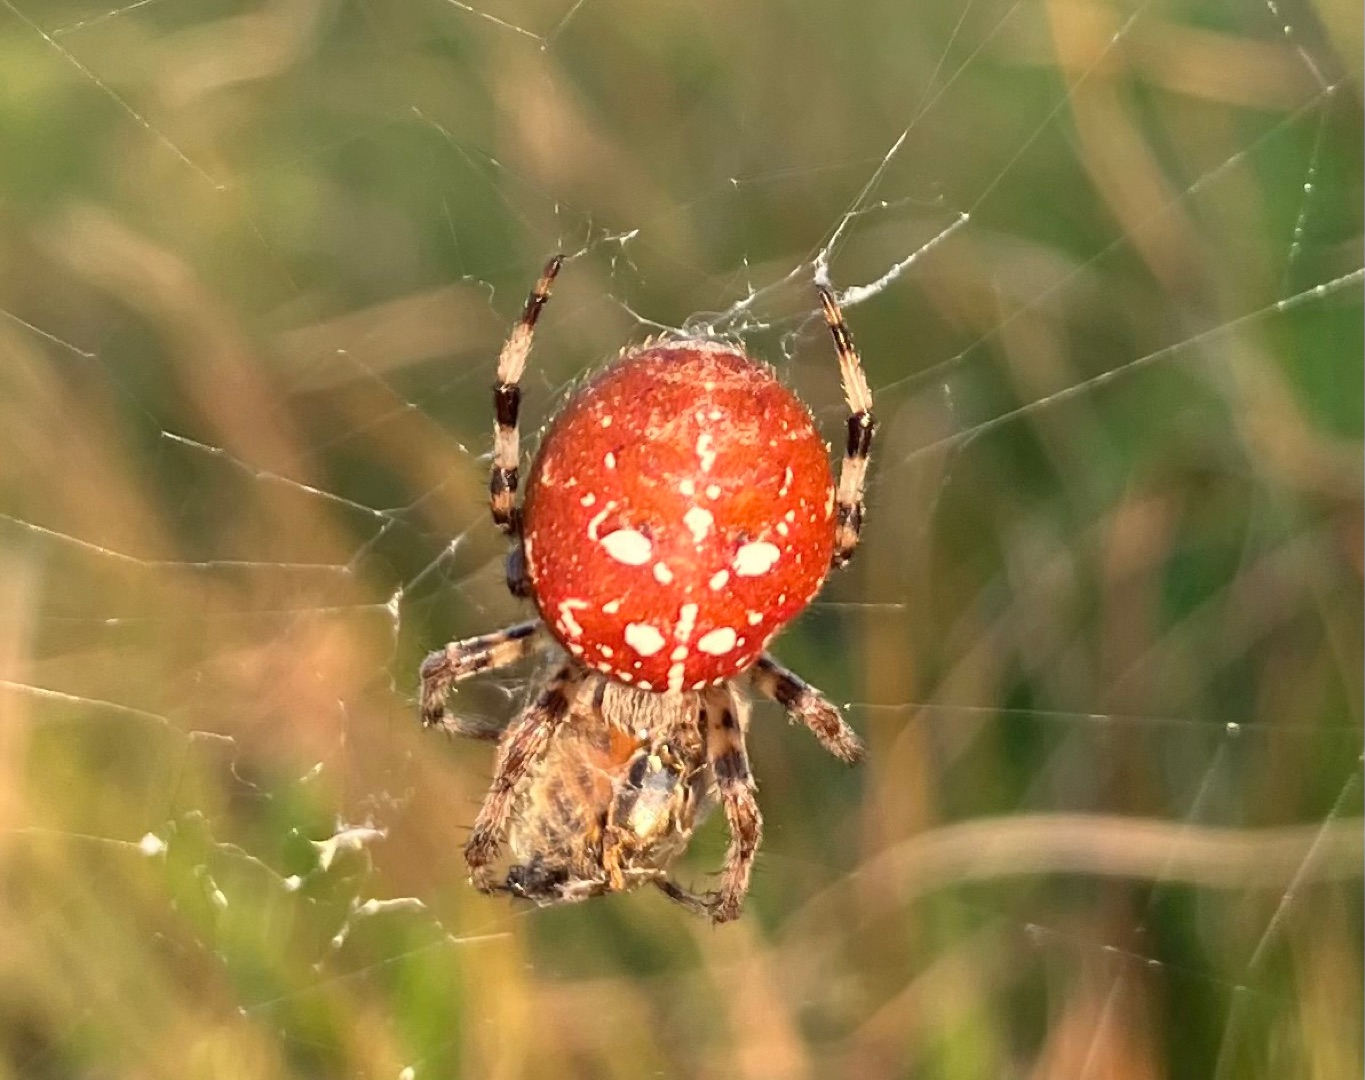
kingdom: Animalia
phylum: Arthropoda
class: Arachnida
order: Araneae
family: Araneidae
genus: Araneus
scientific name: Araneus quadratus
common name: Kvadratedderkop
